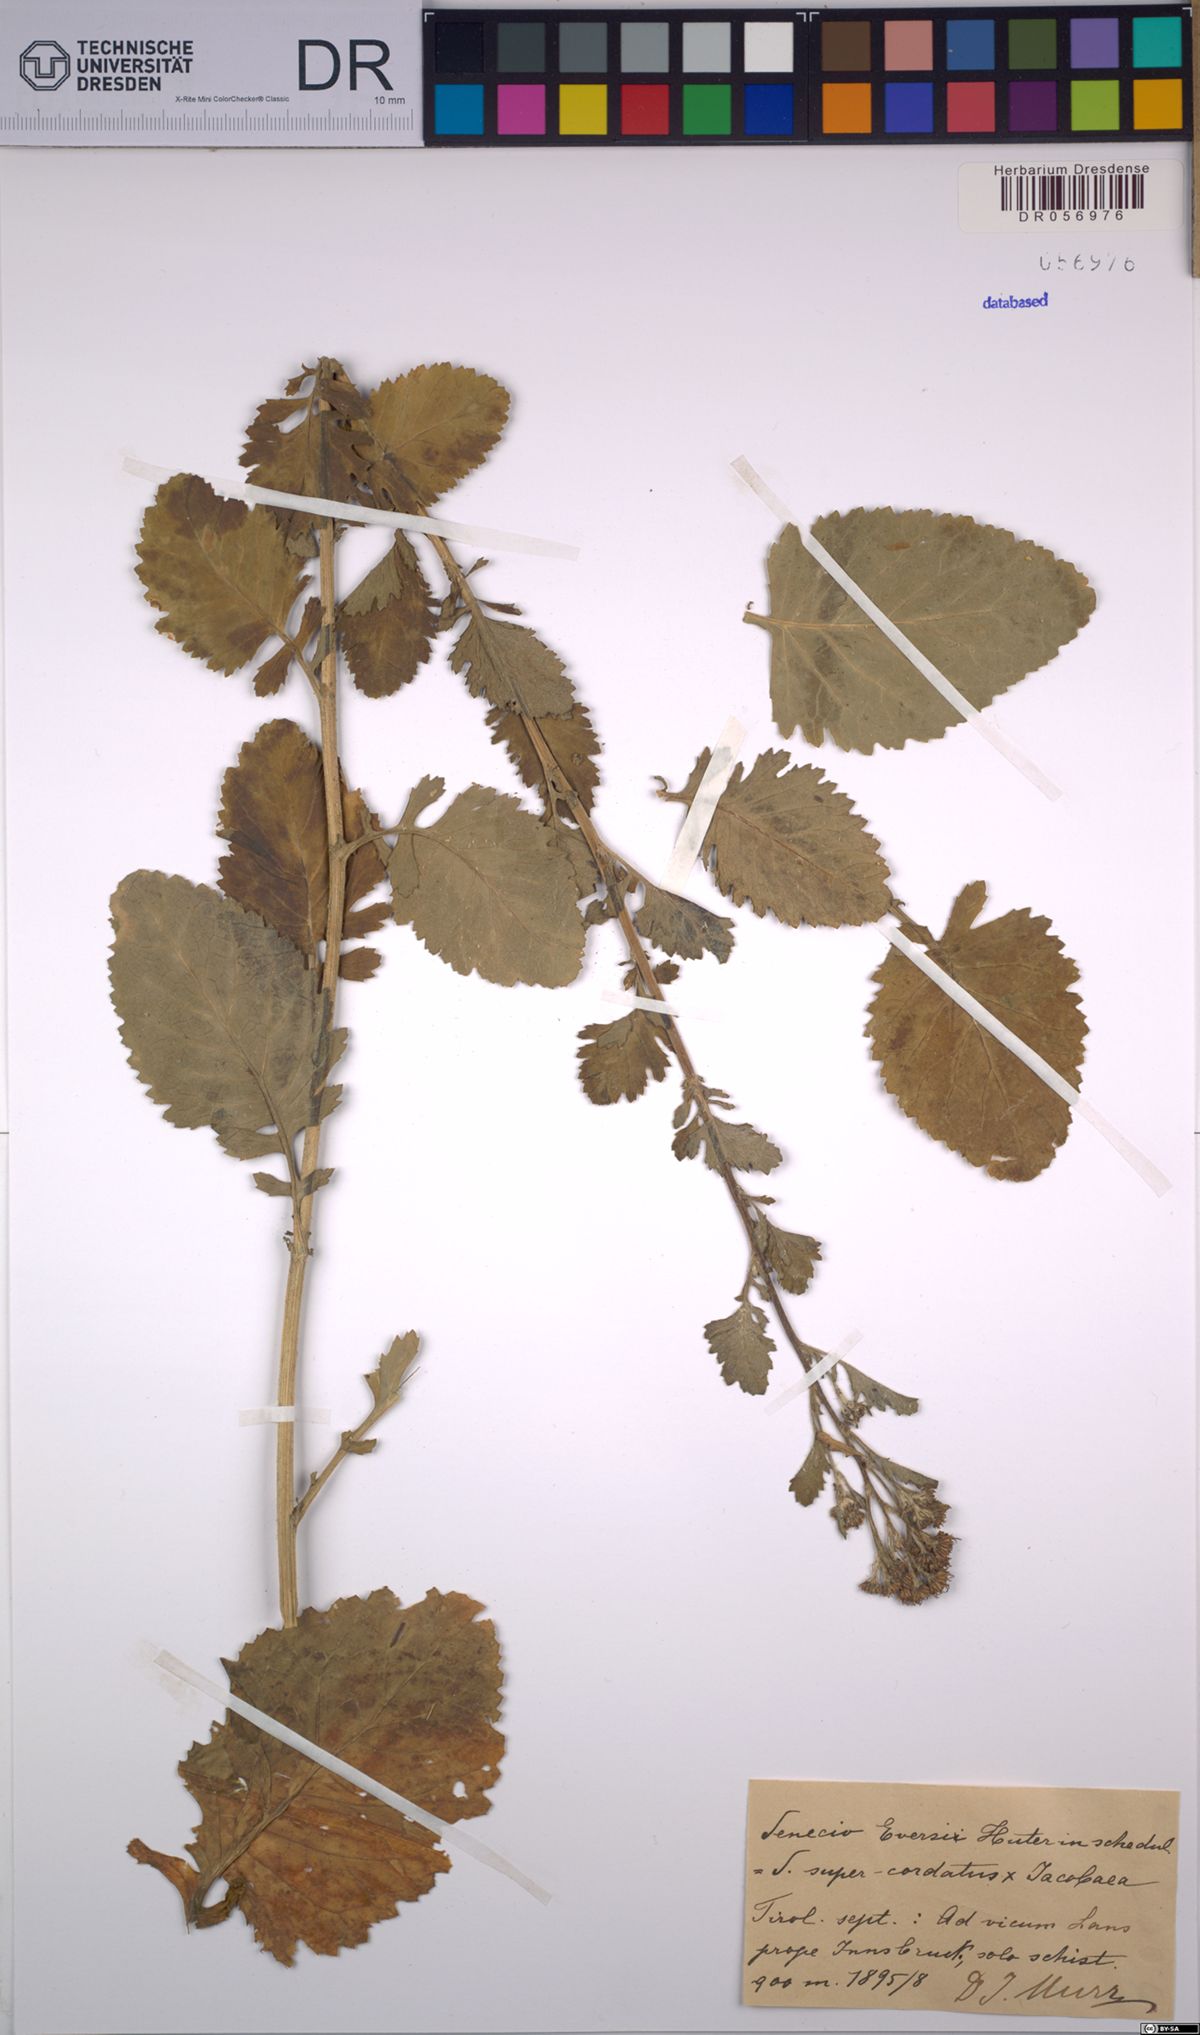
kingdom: Plantae
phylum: Tracheophyta
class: Magnoliopsida
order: Asterales
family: Asteraceae
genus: Jacobaea
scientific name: Jacobaea vulgaris
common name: Stinking willie
